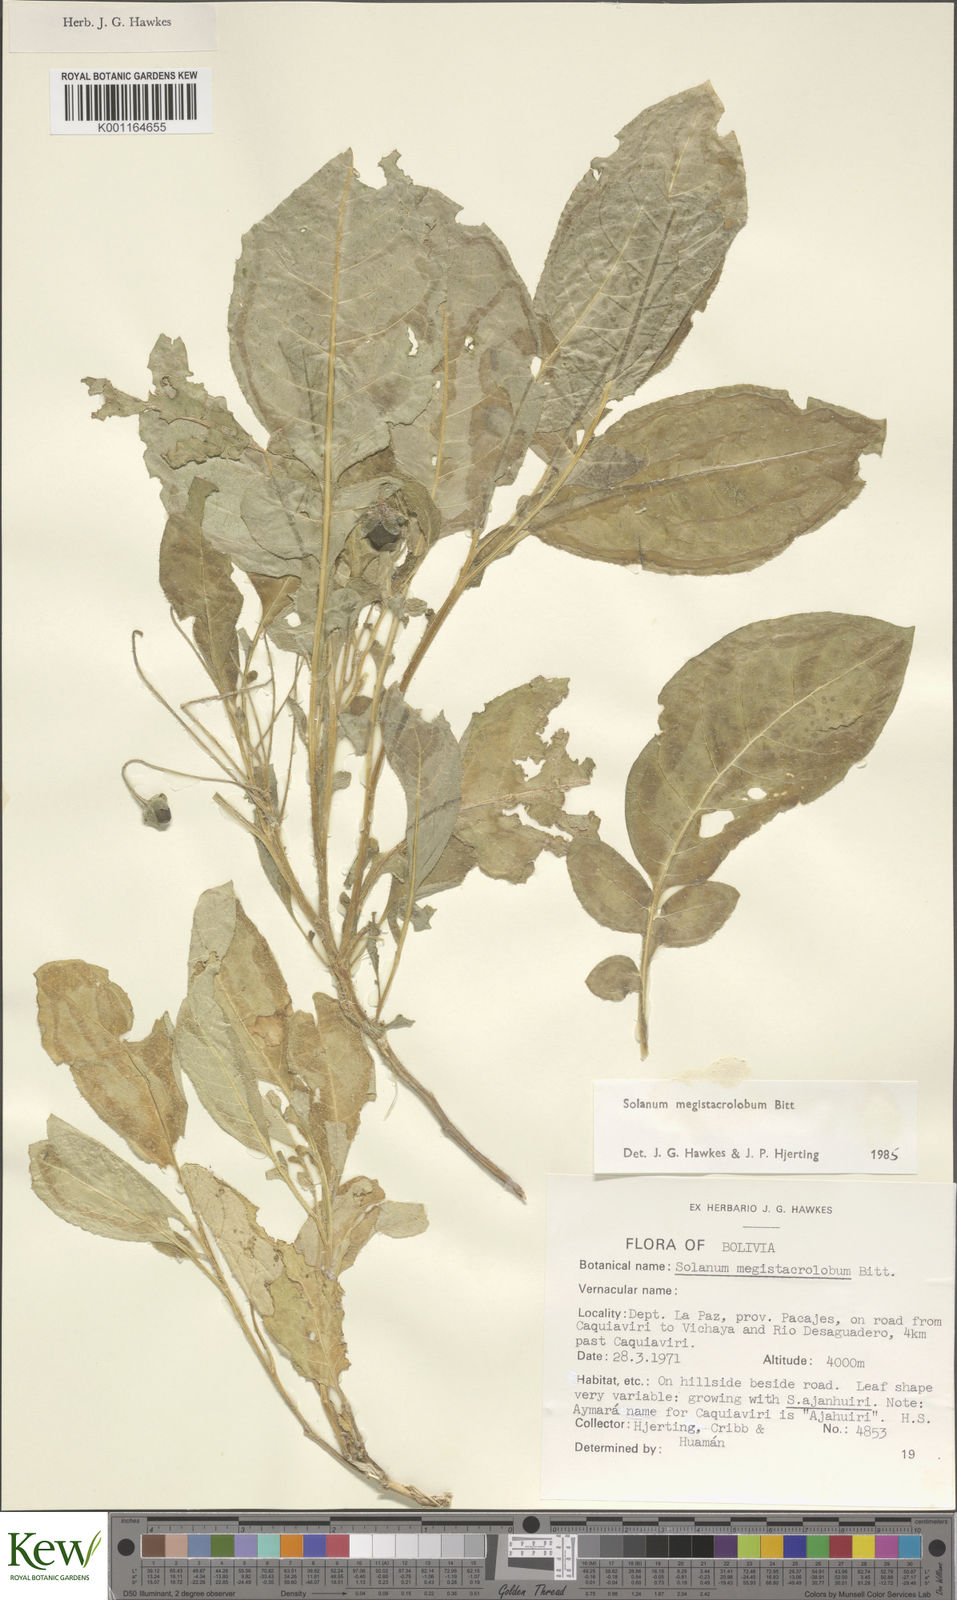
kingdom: Plantae
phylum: Tracheophyta
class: Magnoliopsida
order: Solanales
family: Solanaceae
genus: Solanum
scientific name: Solanum boliviense
